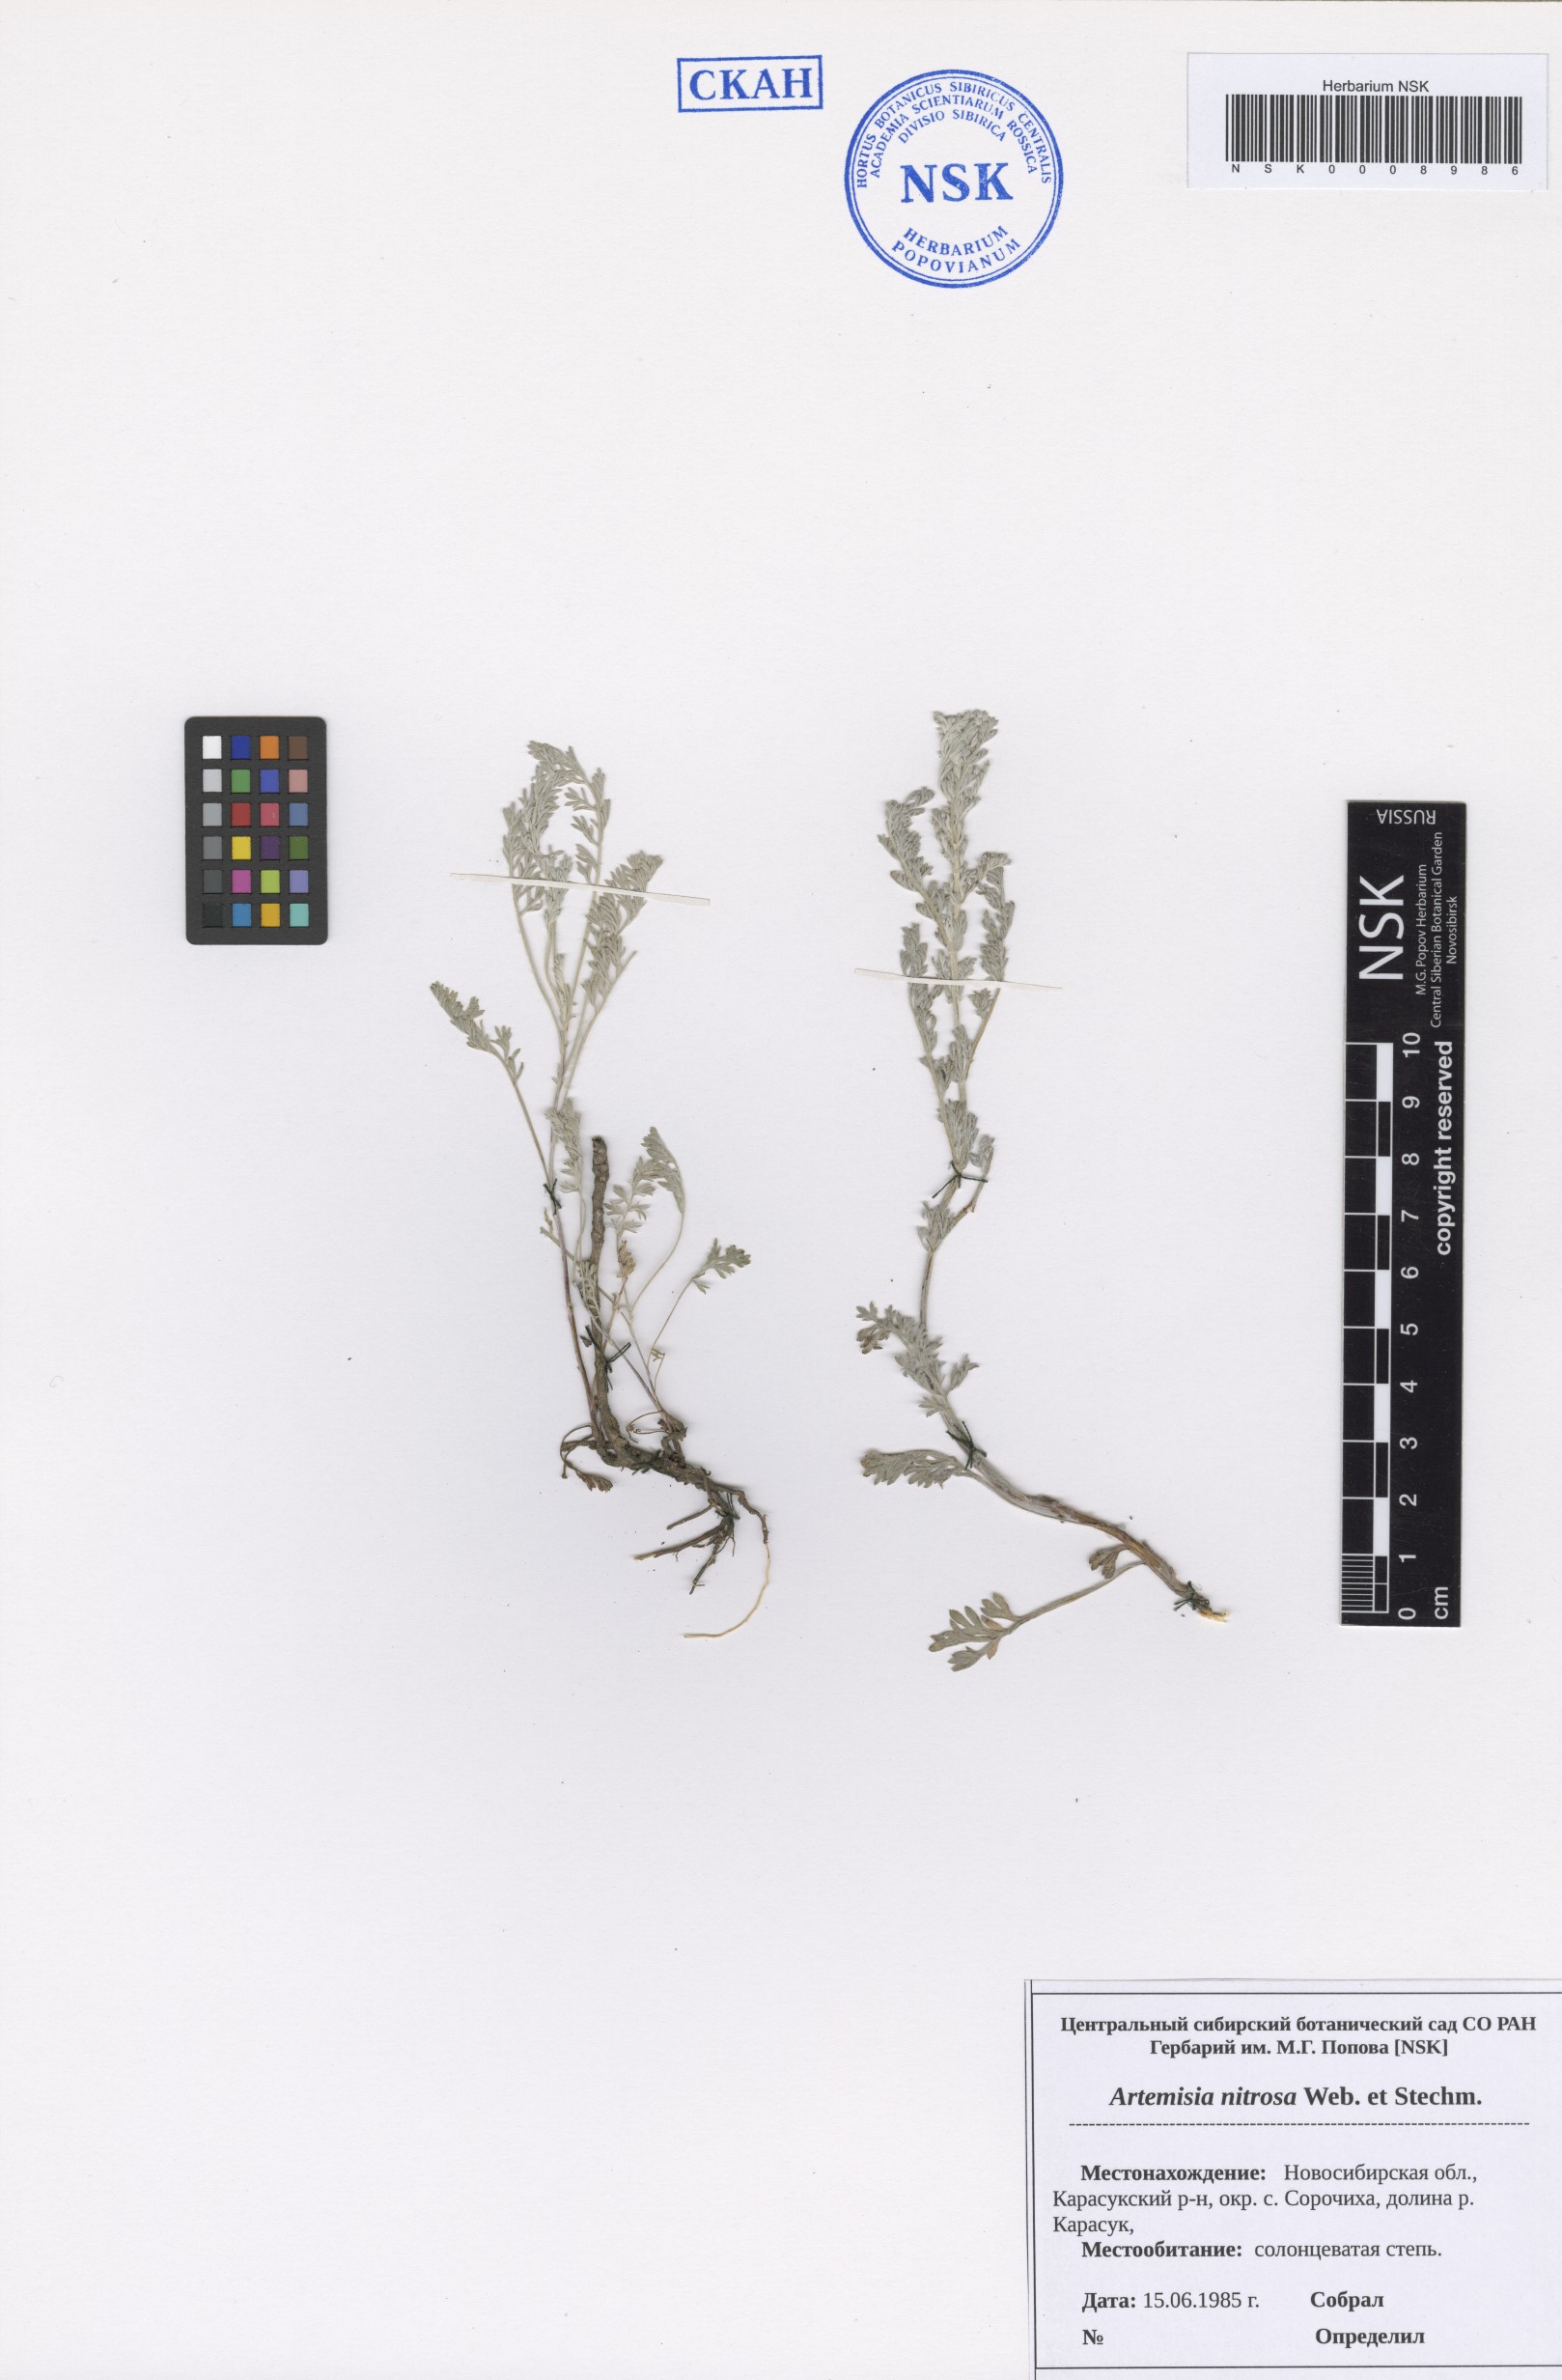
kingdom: Plantae
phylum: Tracheophyta
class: Magnoliopsida
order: Asterales
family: Asteraceae
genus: Artemisia
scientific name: Artemisia nitrosa
